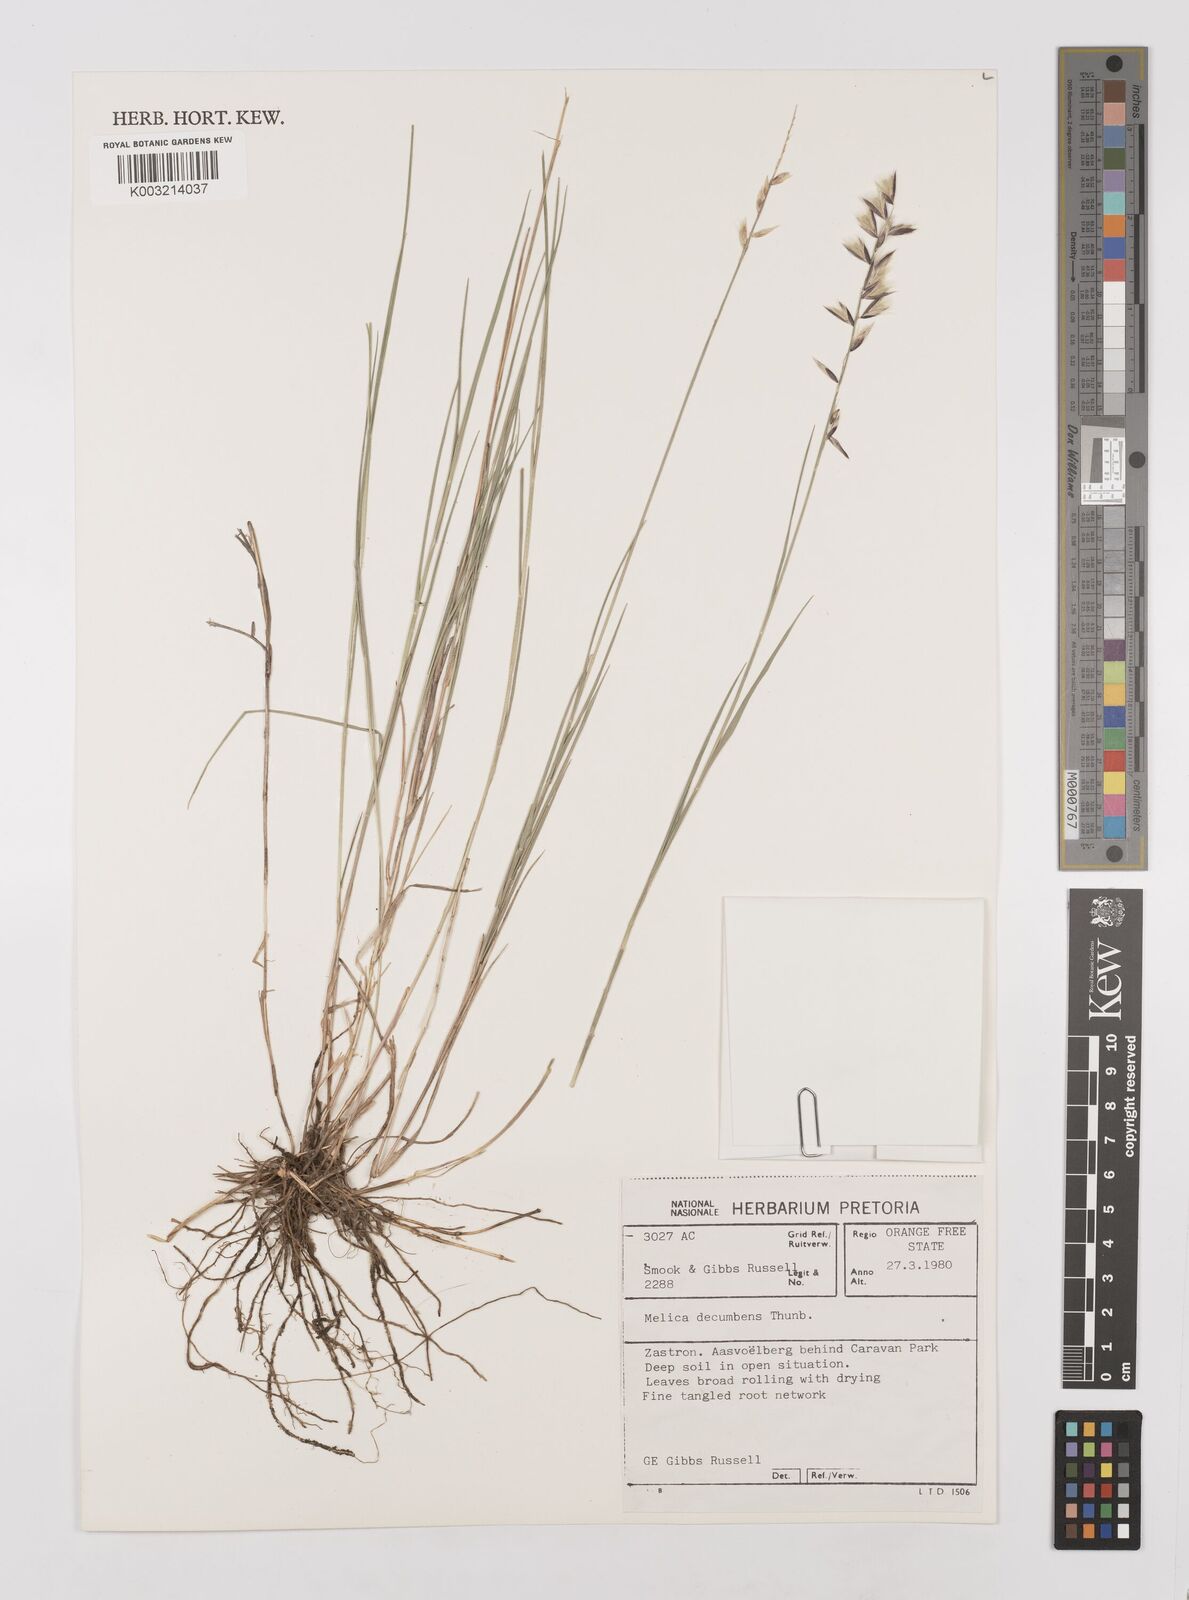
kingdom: Plantae
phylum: Tracheophyta
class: Liliopsida
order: Poales
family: Poaceae
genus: Melica
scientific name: Melica dendroides
